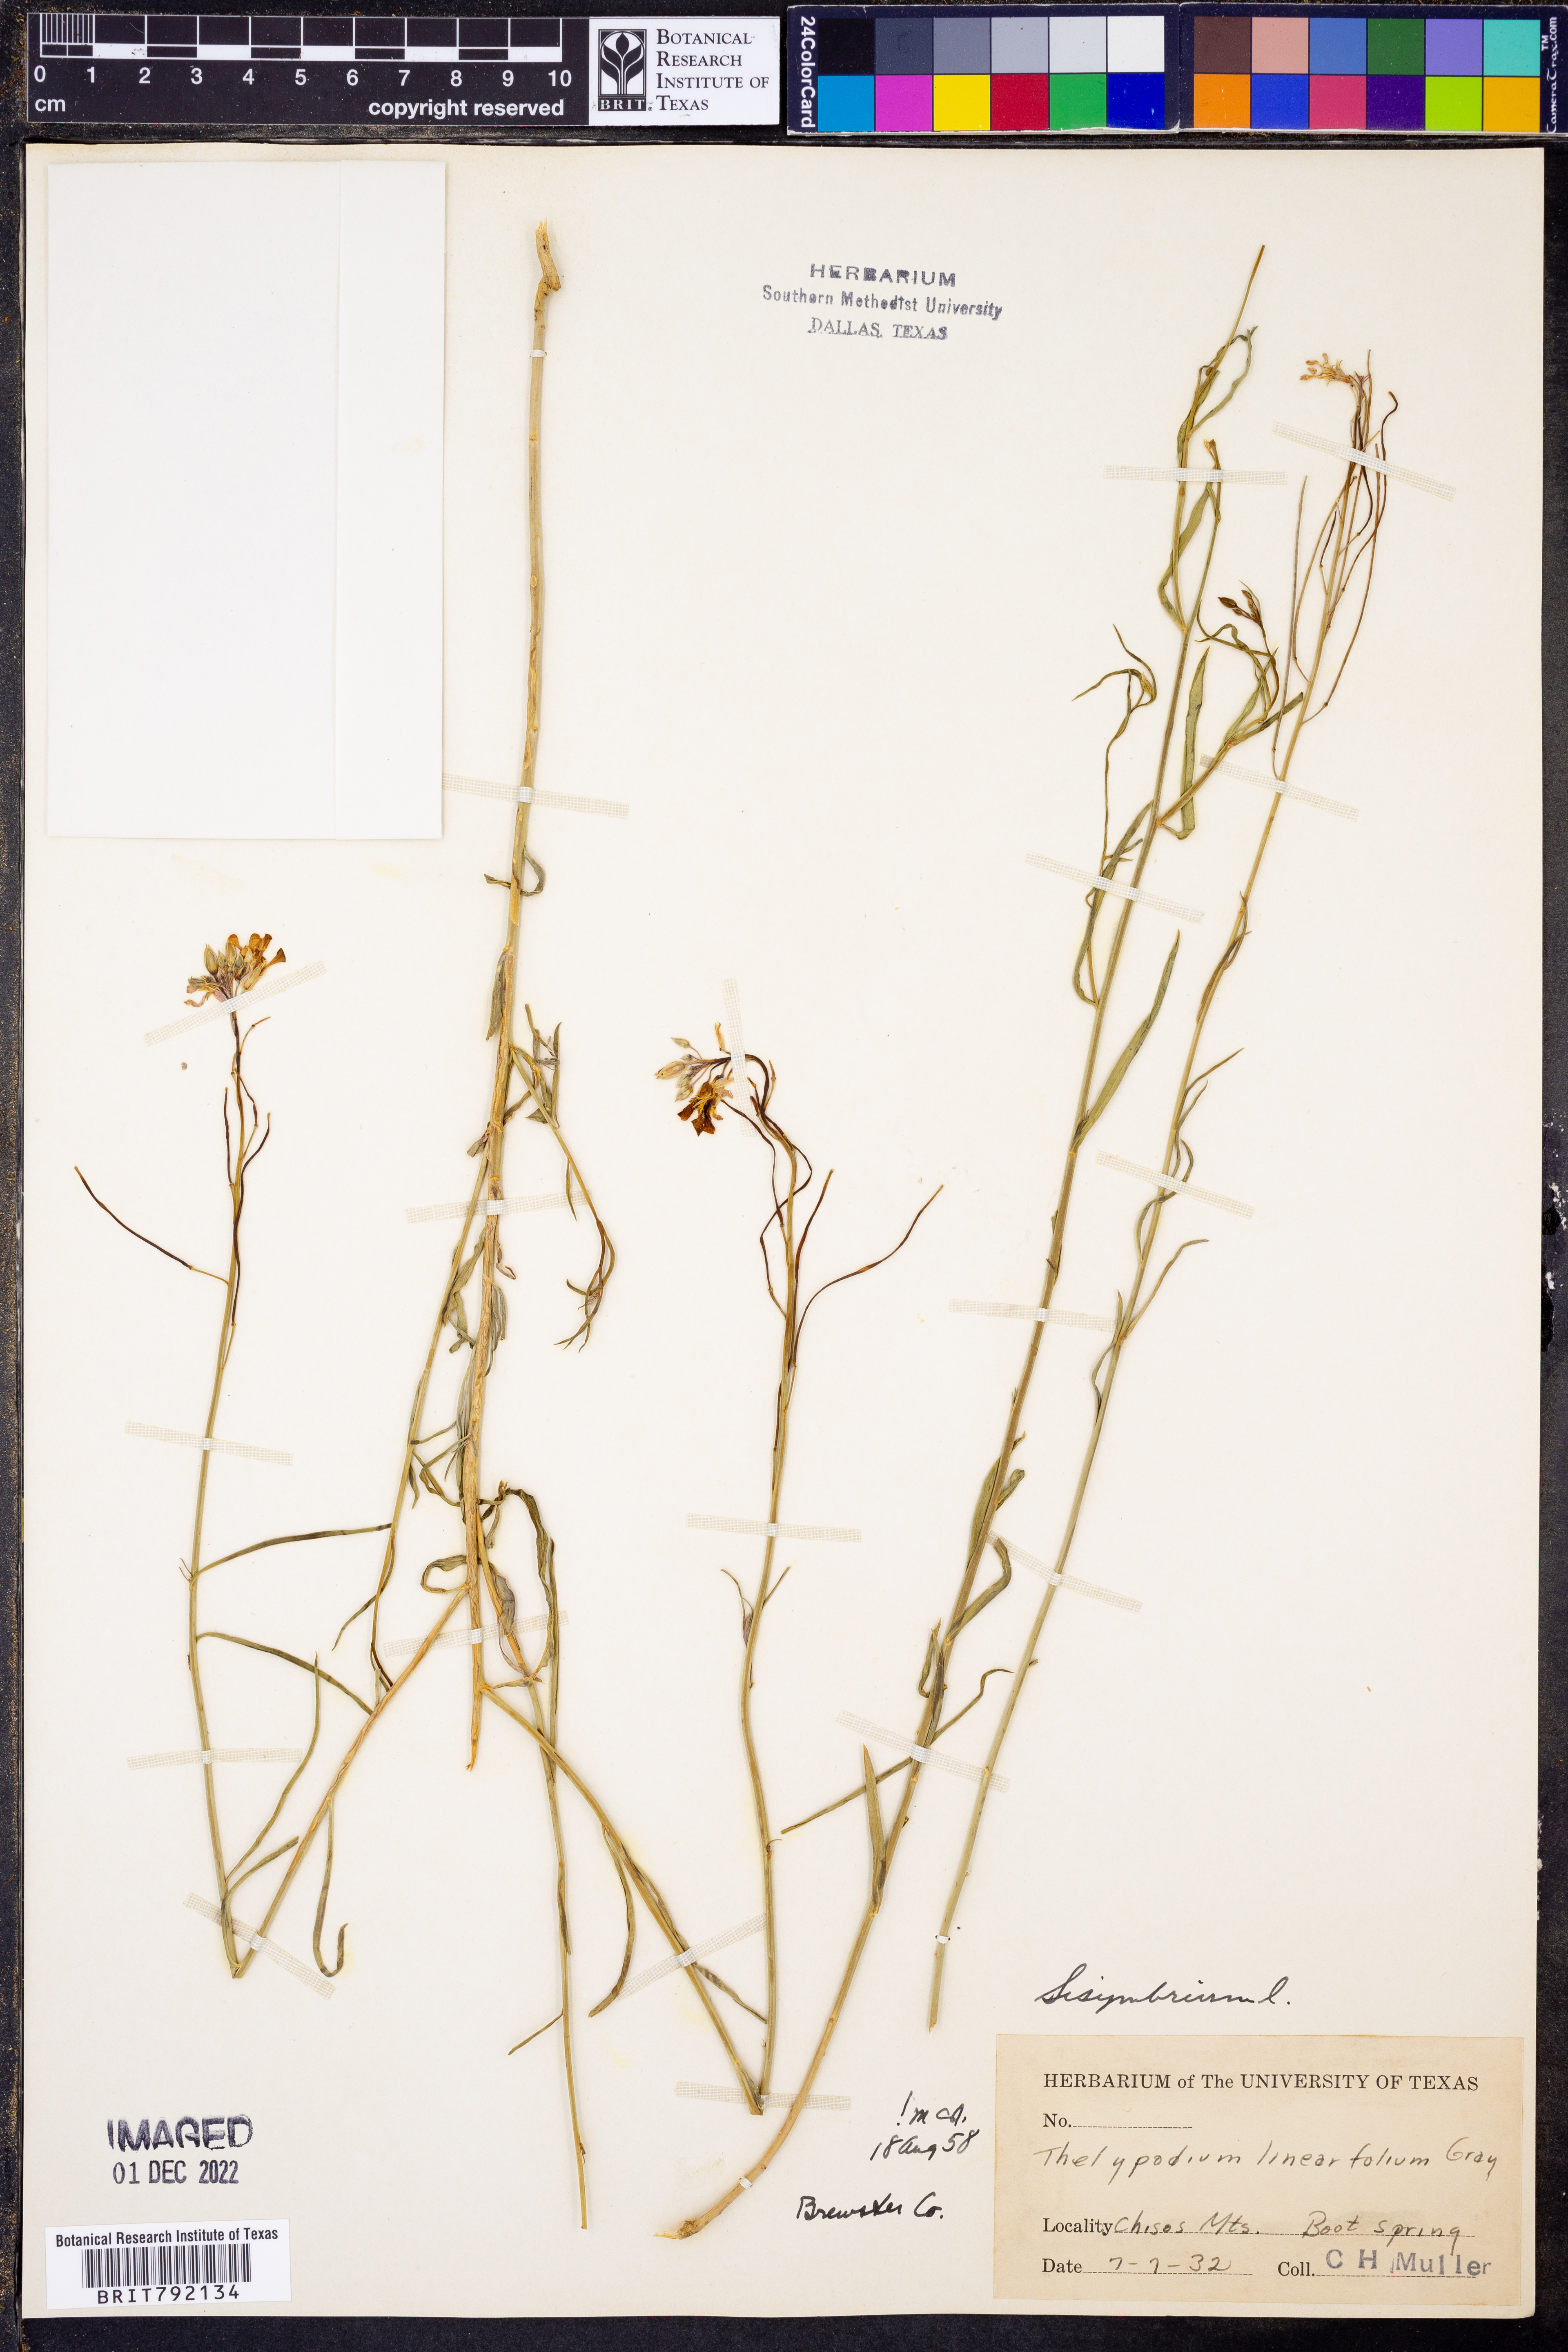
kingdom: Plantae
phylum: Tracheophyta
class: Magnoliopsida
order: Brassicales
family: Brassicaceae
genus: Sisymbrium
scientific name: Sisymbrium
